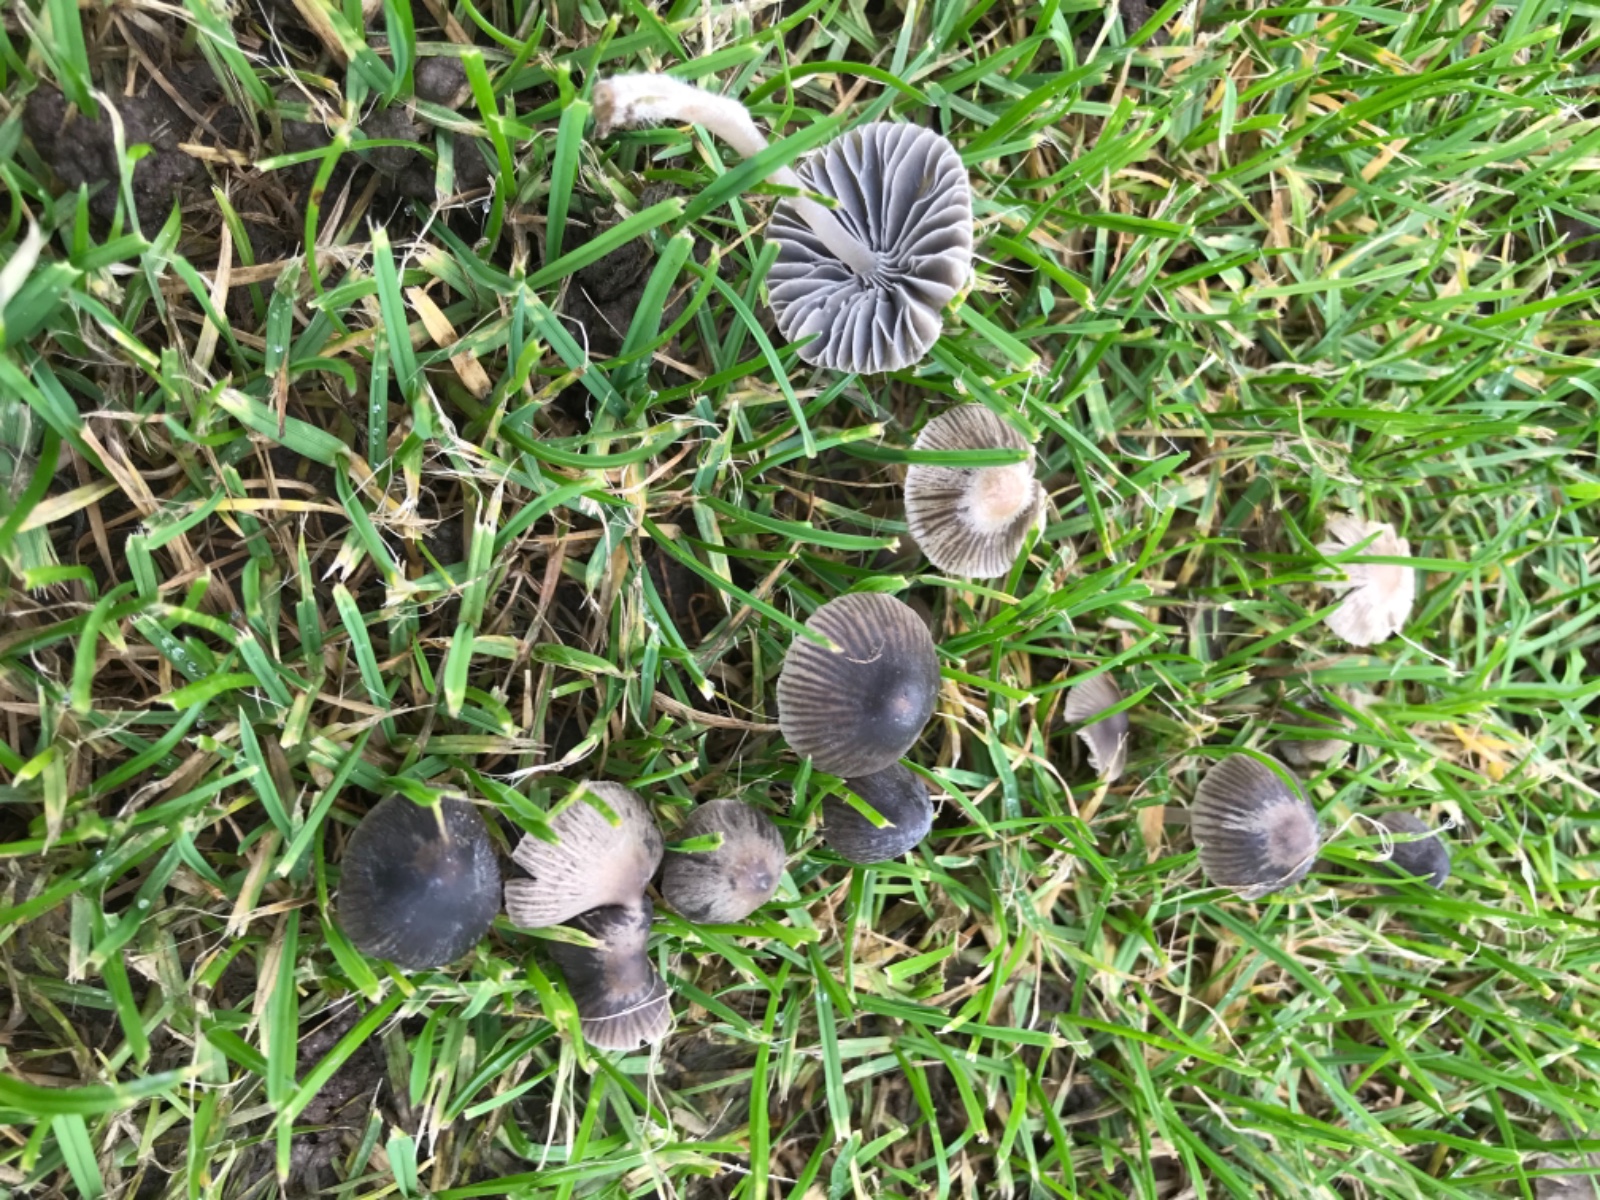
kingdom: Fungi
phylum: Basidiomycota
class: Agaricomycetes
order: Agaricales
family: Mycenaceae
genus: Mycena
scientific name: Mycena aetites
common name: plæne-huesvamp
